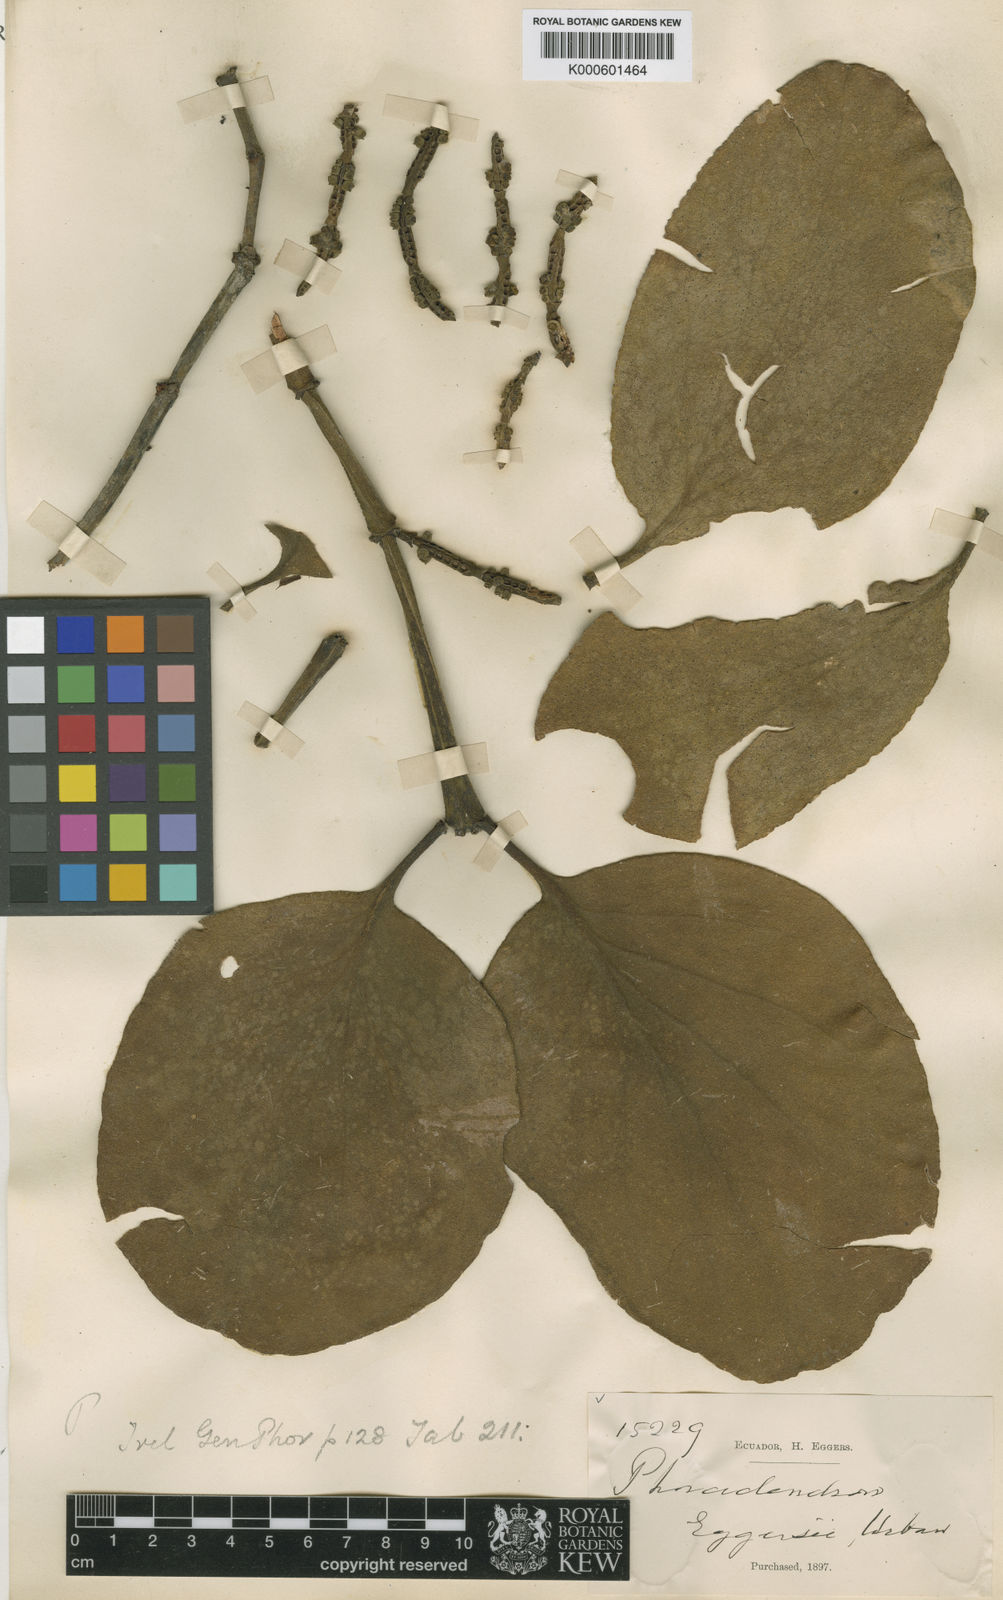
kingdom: Plantae
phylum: Tracheophyta
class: Magnoliopsida
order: Santalales
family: Viscaceae
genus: Phoradendron
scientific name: Phoradendron eggersii
